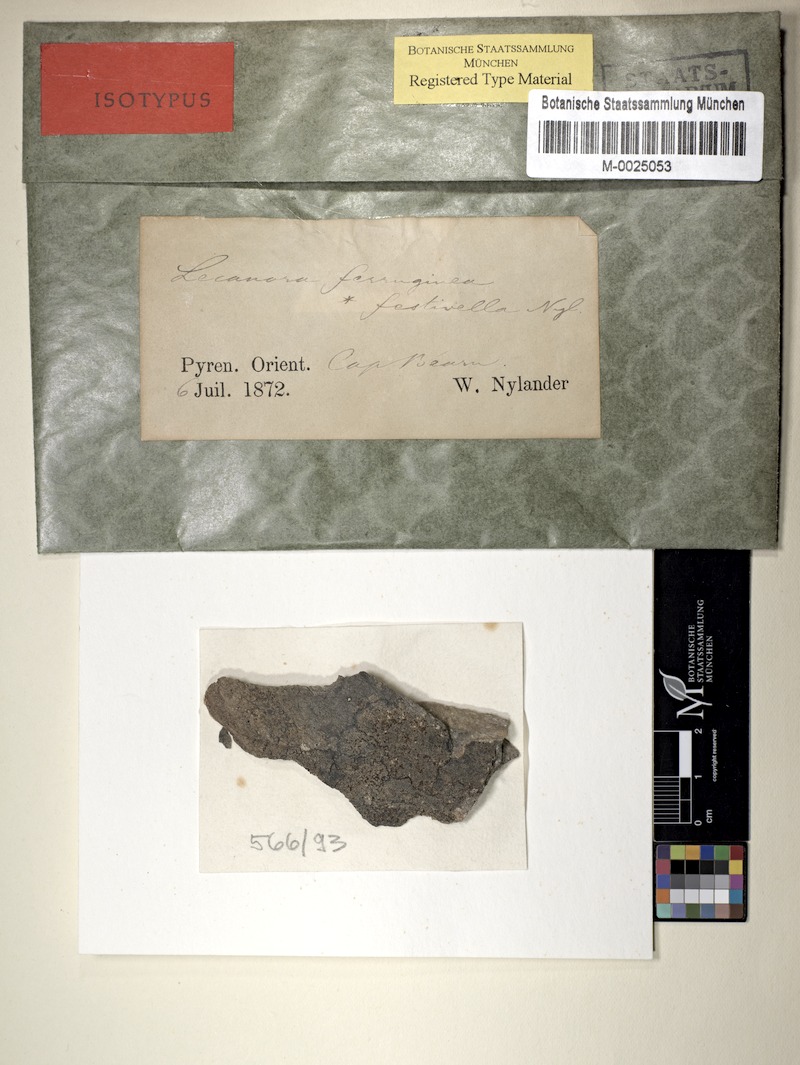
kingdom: Fungi
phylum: Ascomycota
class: Lecanoromycetes
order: Teloschistales
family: Teloschistaceae
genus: Blastenia
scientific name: Blastenia festivella
